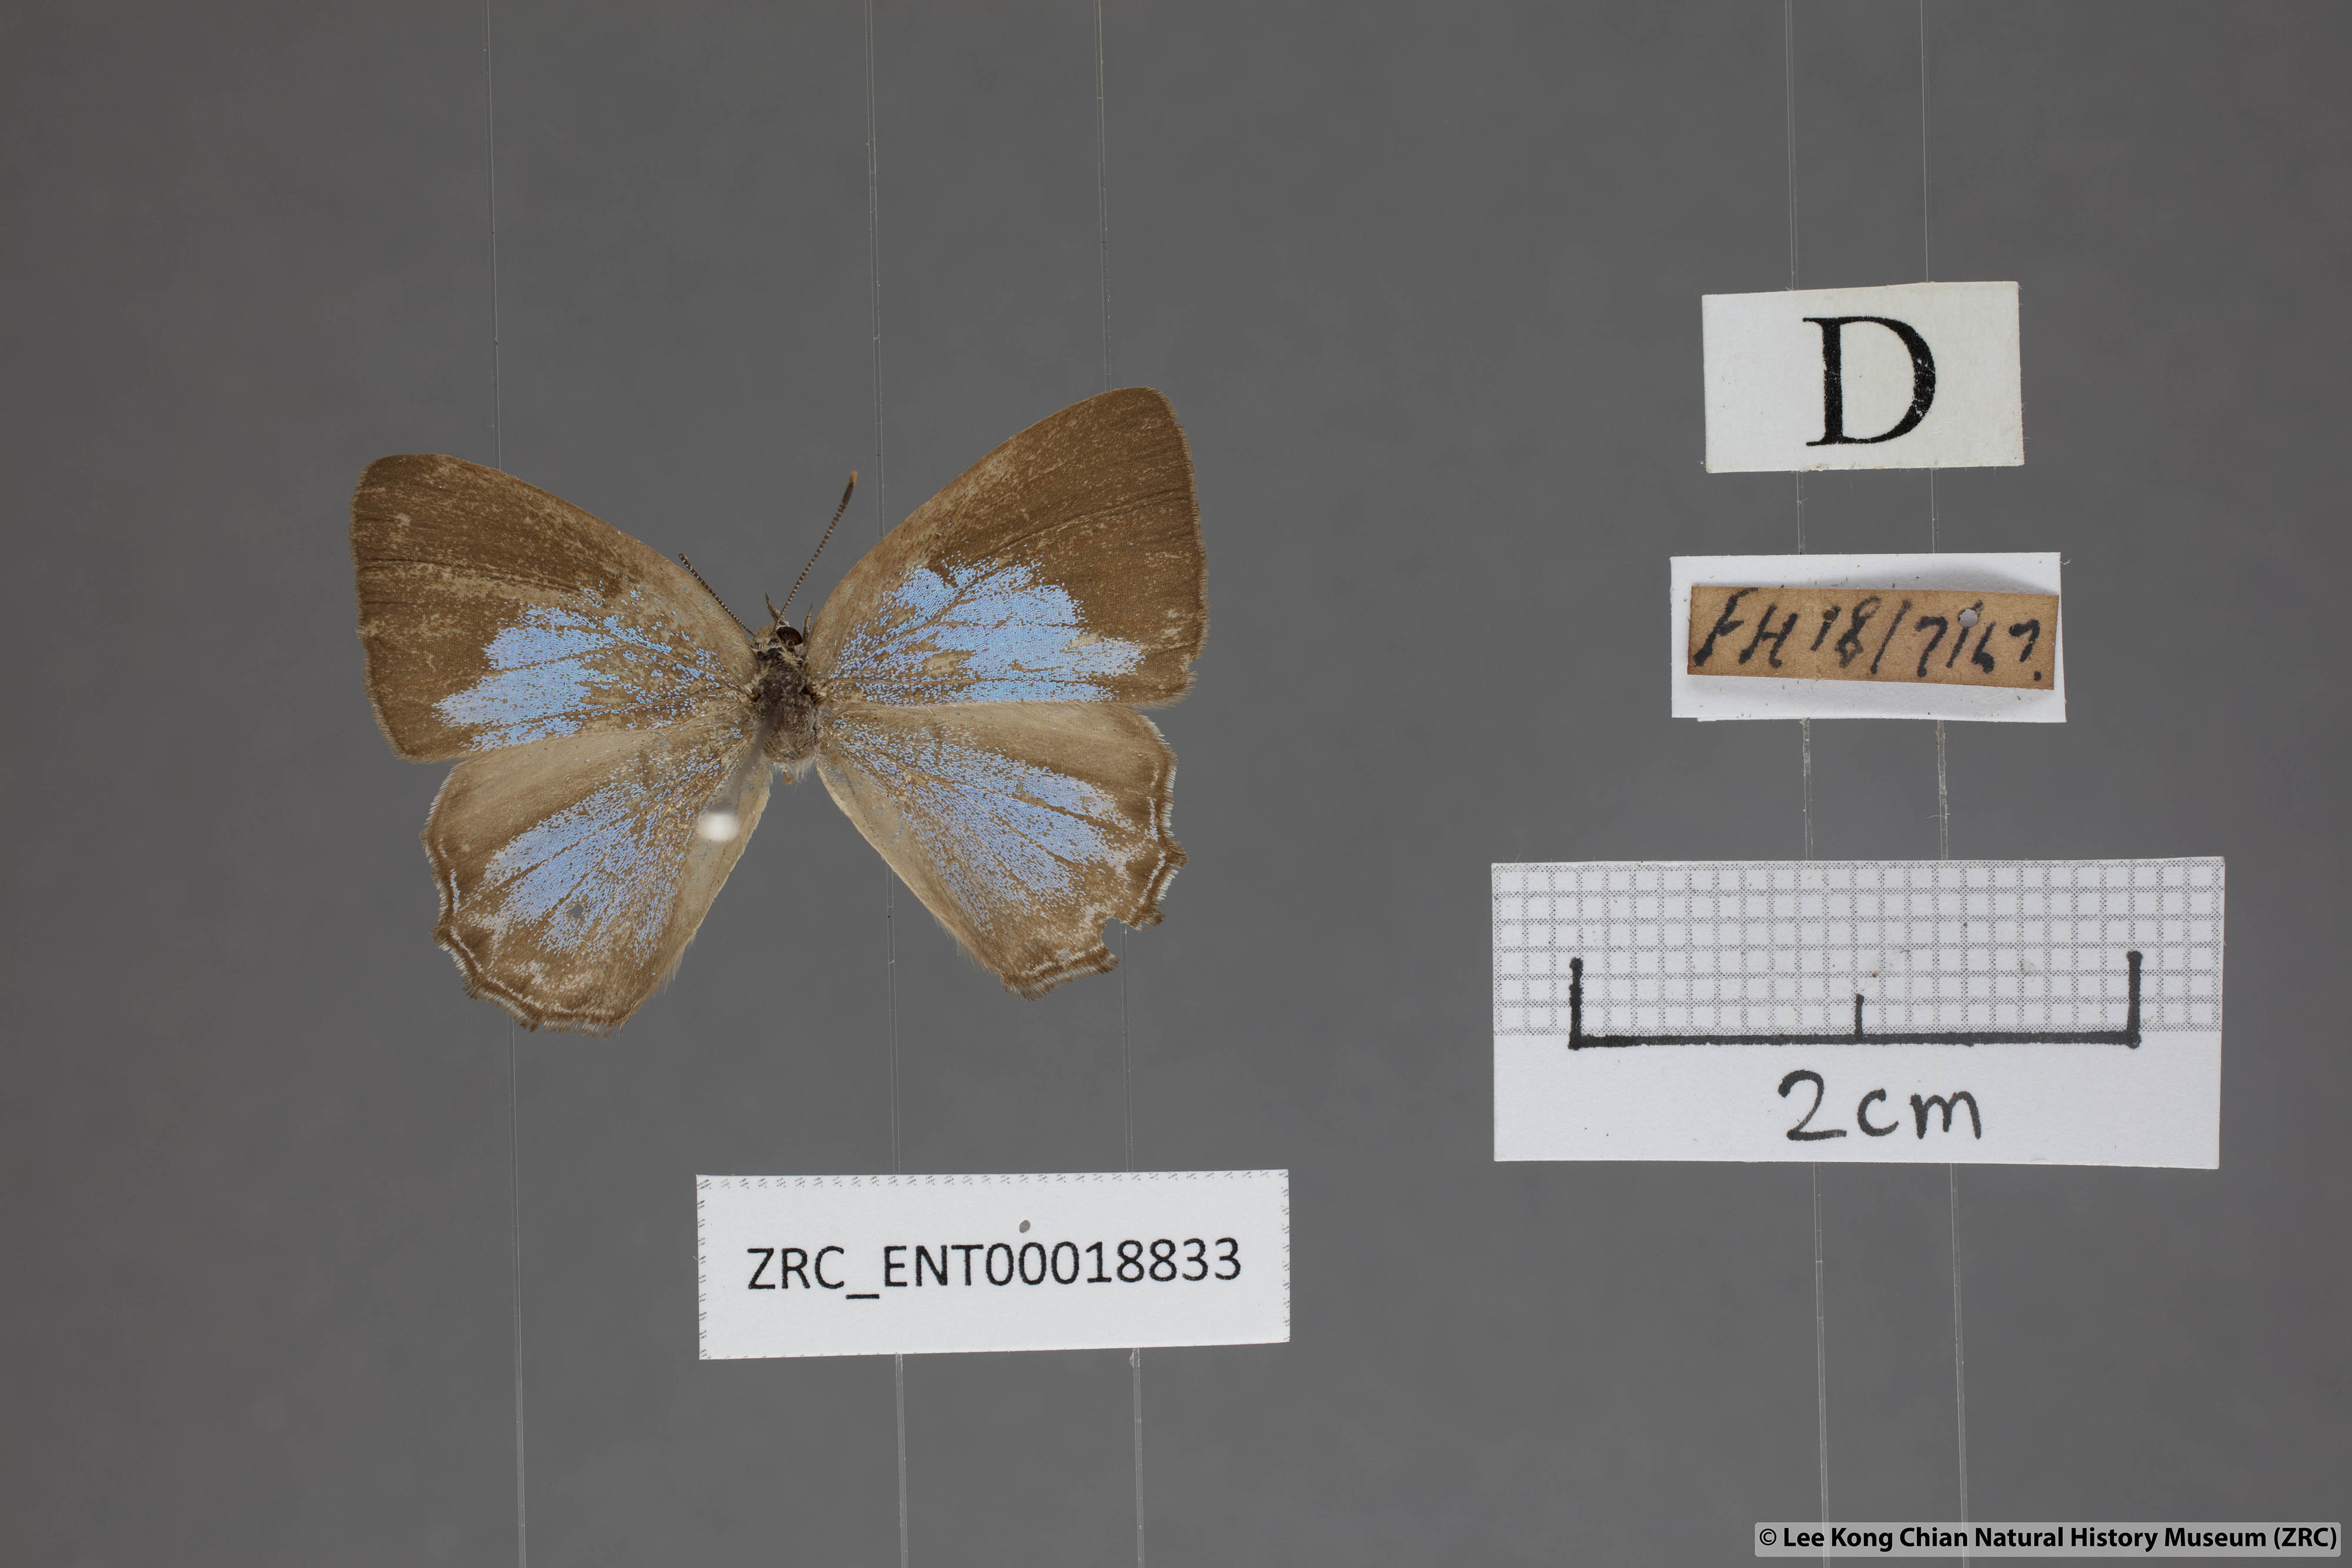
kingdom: Animalia
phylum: Arthropoda
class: Insecta
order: Lepidoptera
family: Lycaenidae
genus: Poritia
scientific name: Poritia promula
